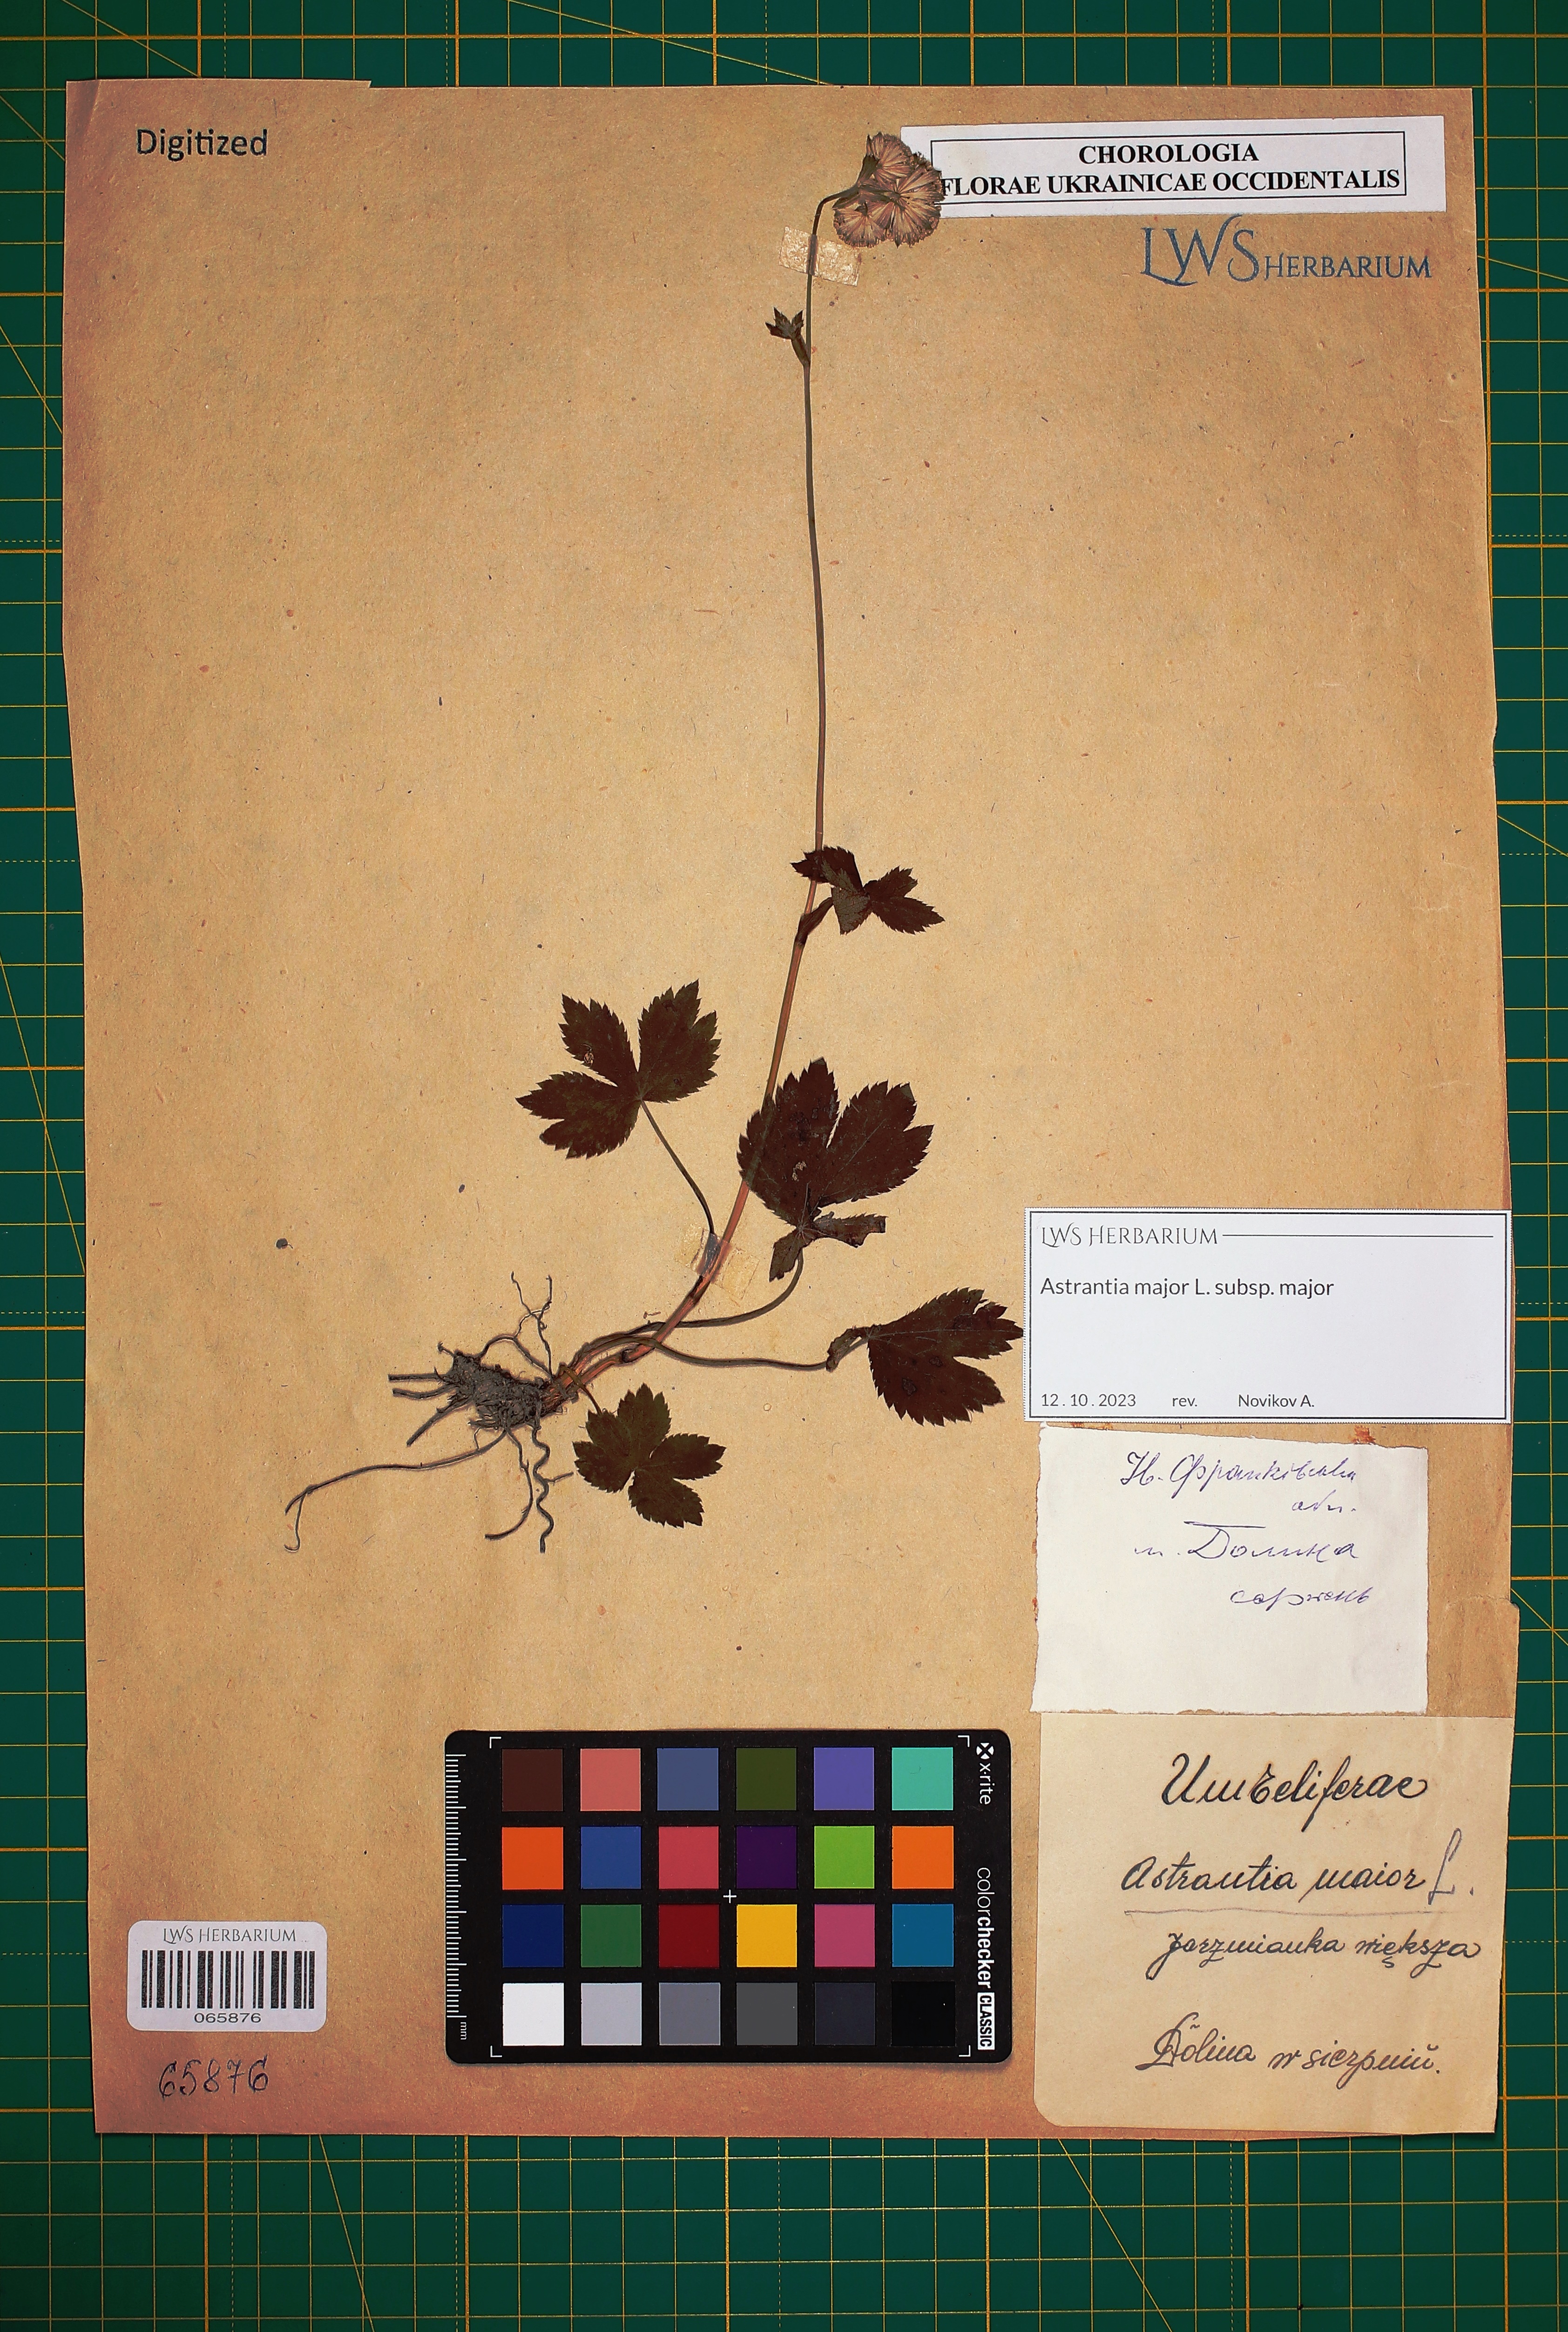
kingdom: Plantae
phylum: Tracheophyta
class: Magnoliopsida
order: Apiales
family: Apiaceae
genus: Astrantia
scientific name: Astrantia major
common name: Greater masterwort
